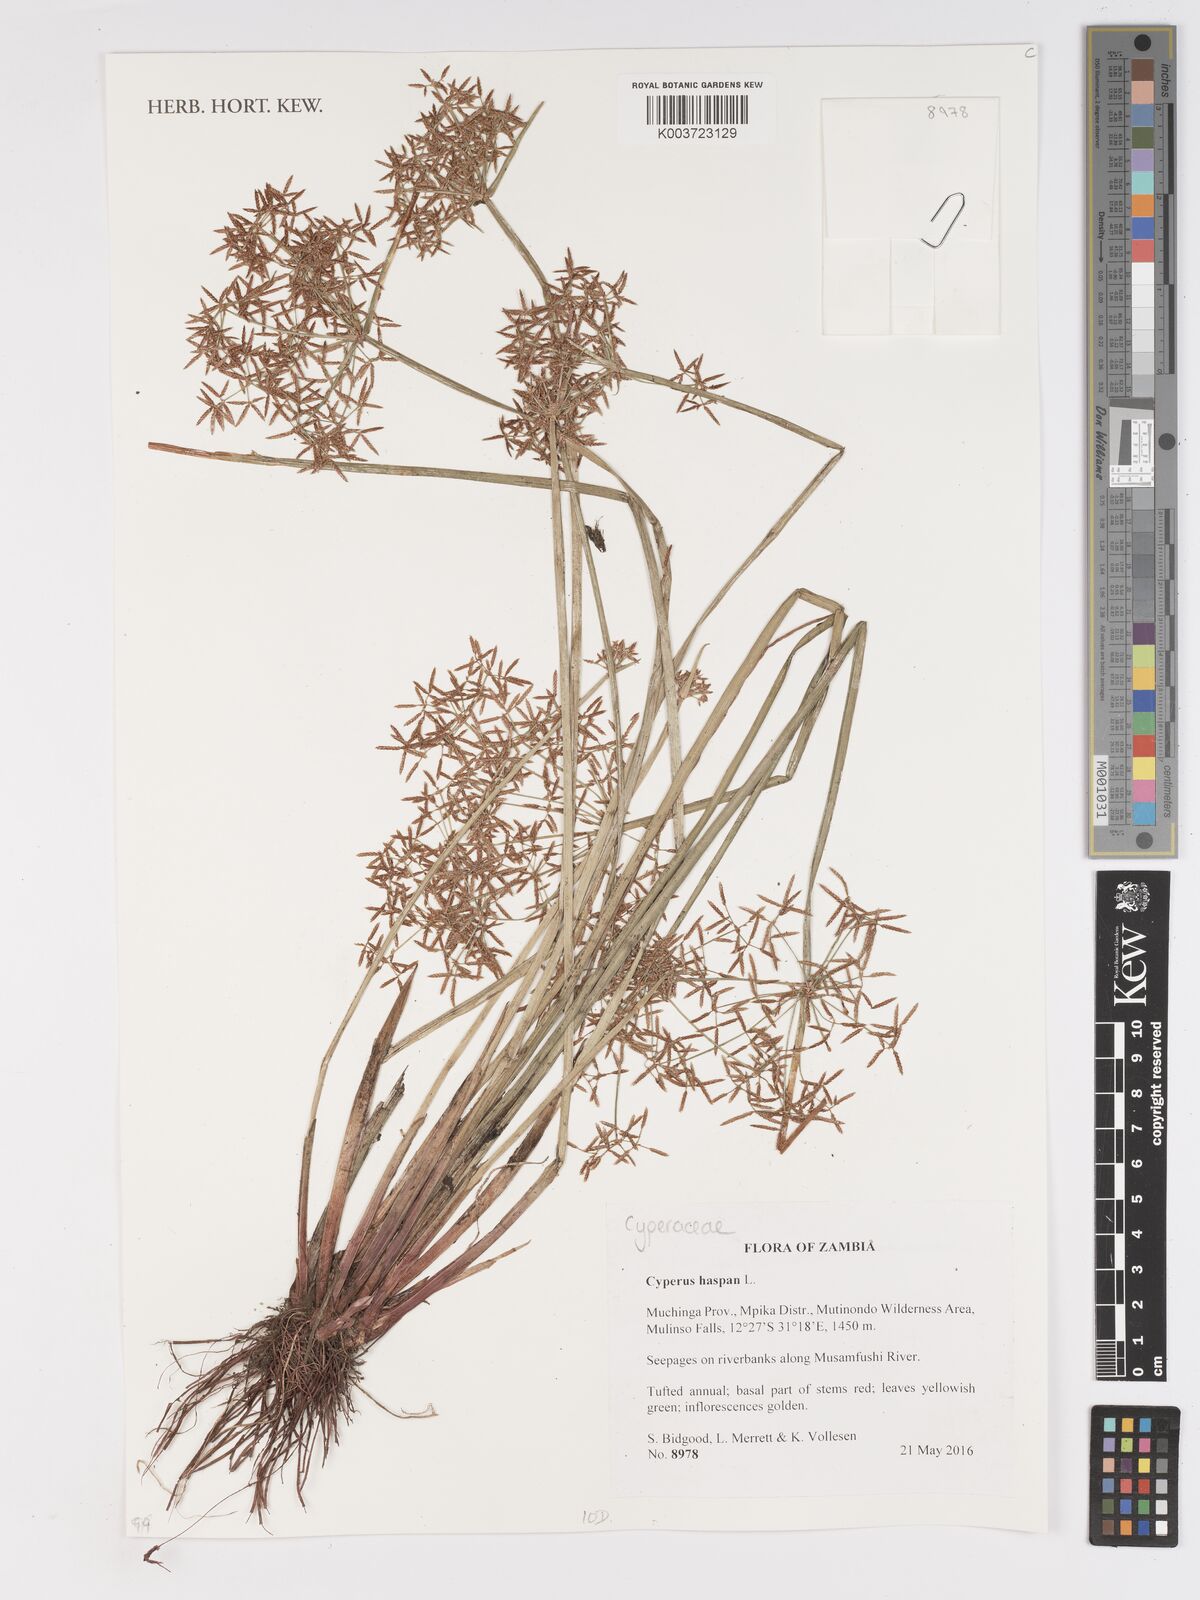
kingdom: Plantae
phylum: Tracheophyta
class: Liliopsida
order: Poales
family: Cyperaceae
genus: Cyperus
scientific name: Cyperus haspan
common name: Haspan flatsedge
